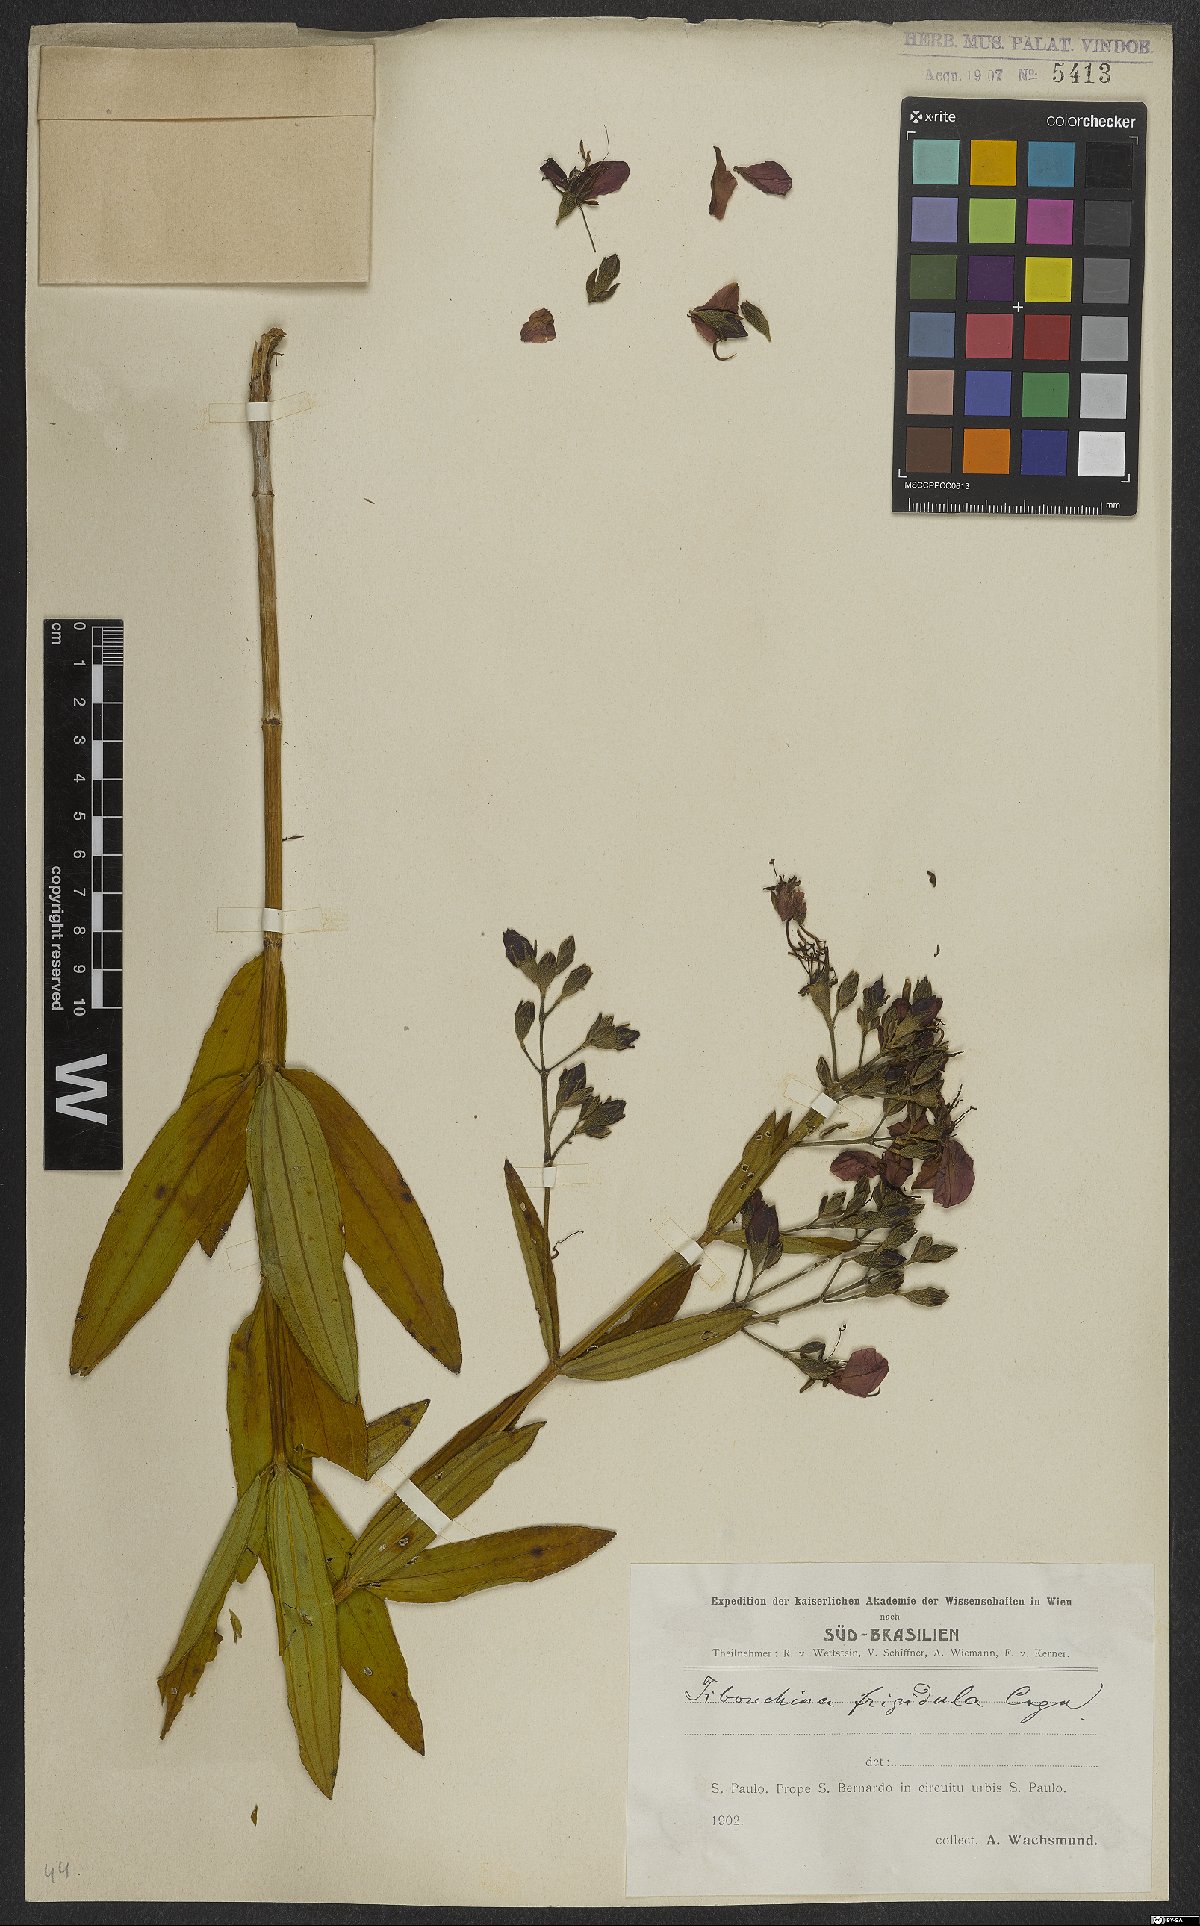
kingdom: Plantae
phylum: Tracheophyta
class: Magnoliopsida
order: Myrtales
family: Melastomataceae
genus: Pleroma
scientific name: Pleroma martiusianum
